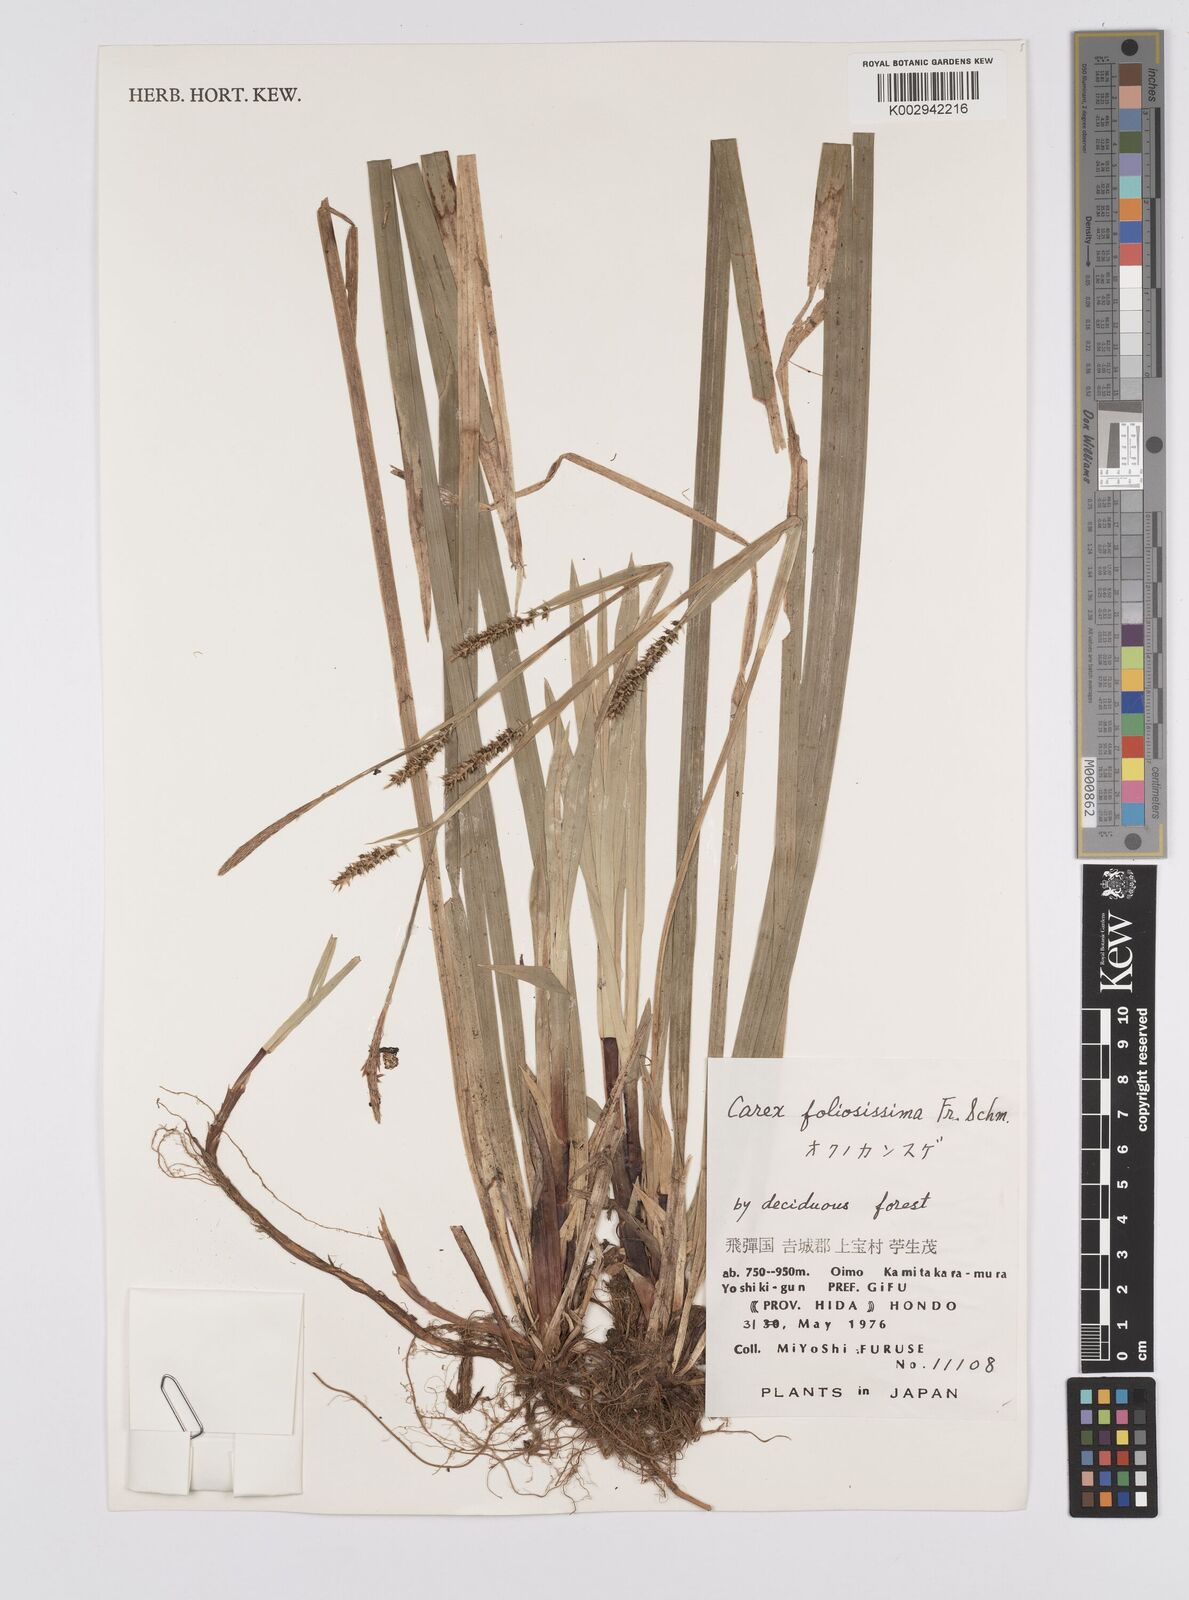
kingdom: Plantae
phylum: Tracheophyta
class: Liliopsida
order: Poales
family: Cyperaceae
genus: Carex
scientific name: Carex morrowii
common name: Japanese sedge
